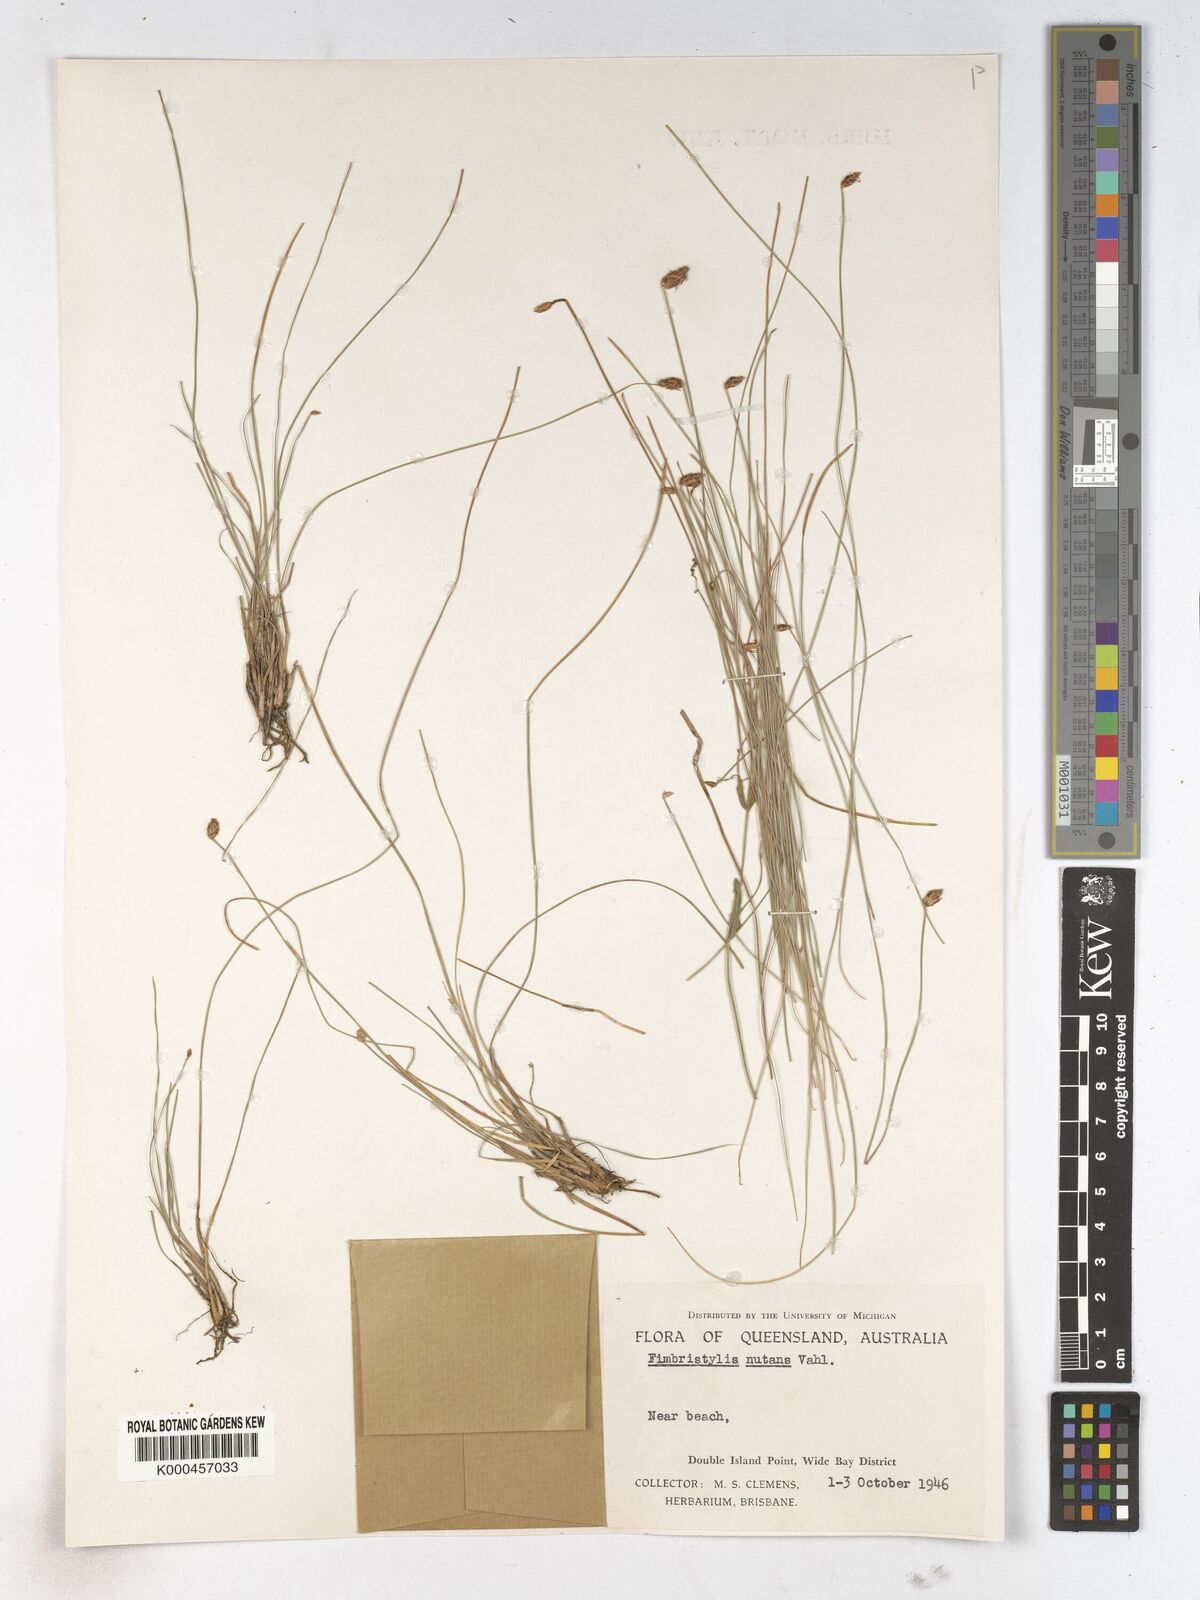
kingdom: Plantae
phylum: Tracheophyta
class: Liliopsida
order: Poales
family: Cyperaceae
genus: Fimbristylis
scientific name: Fimbristylis nutans
